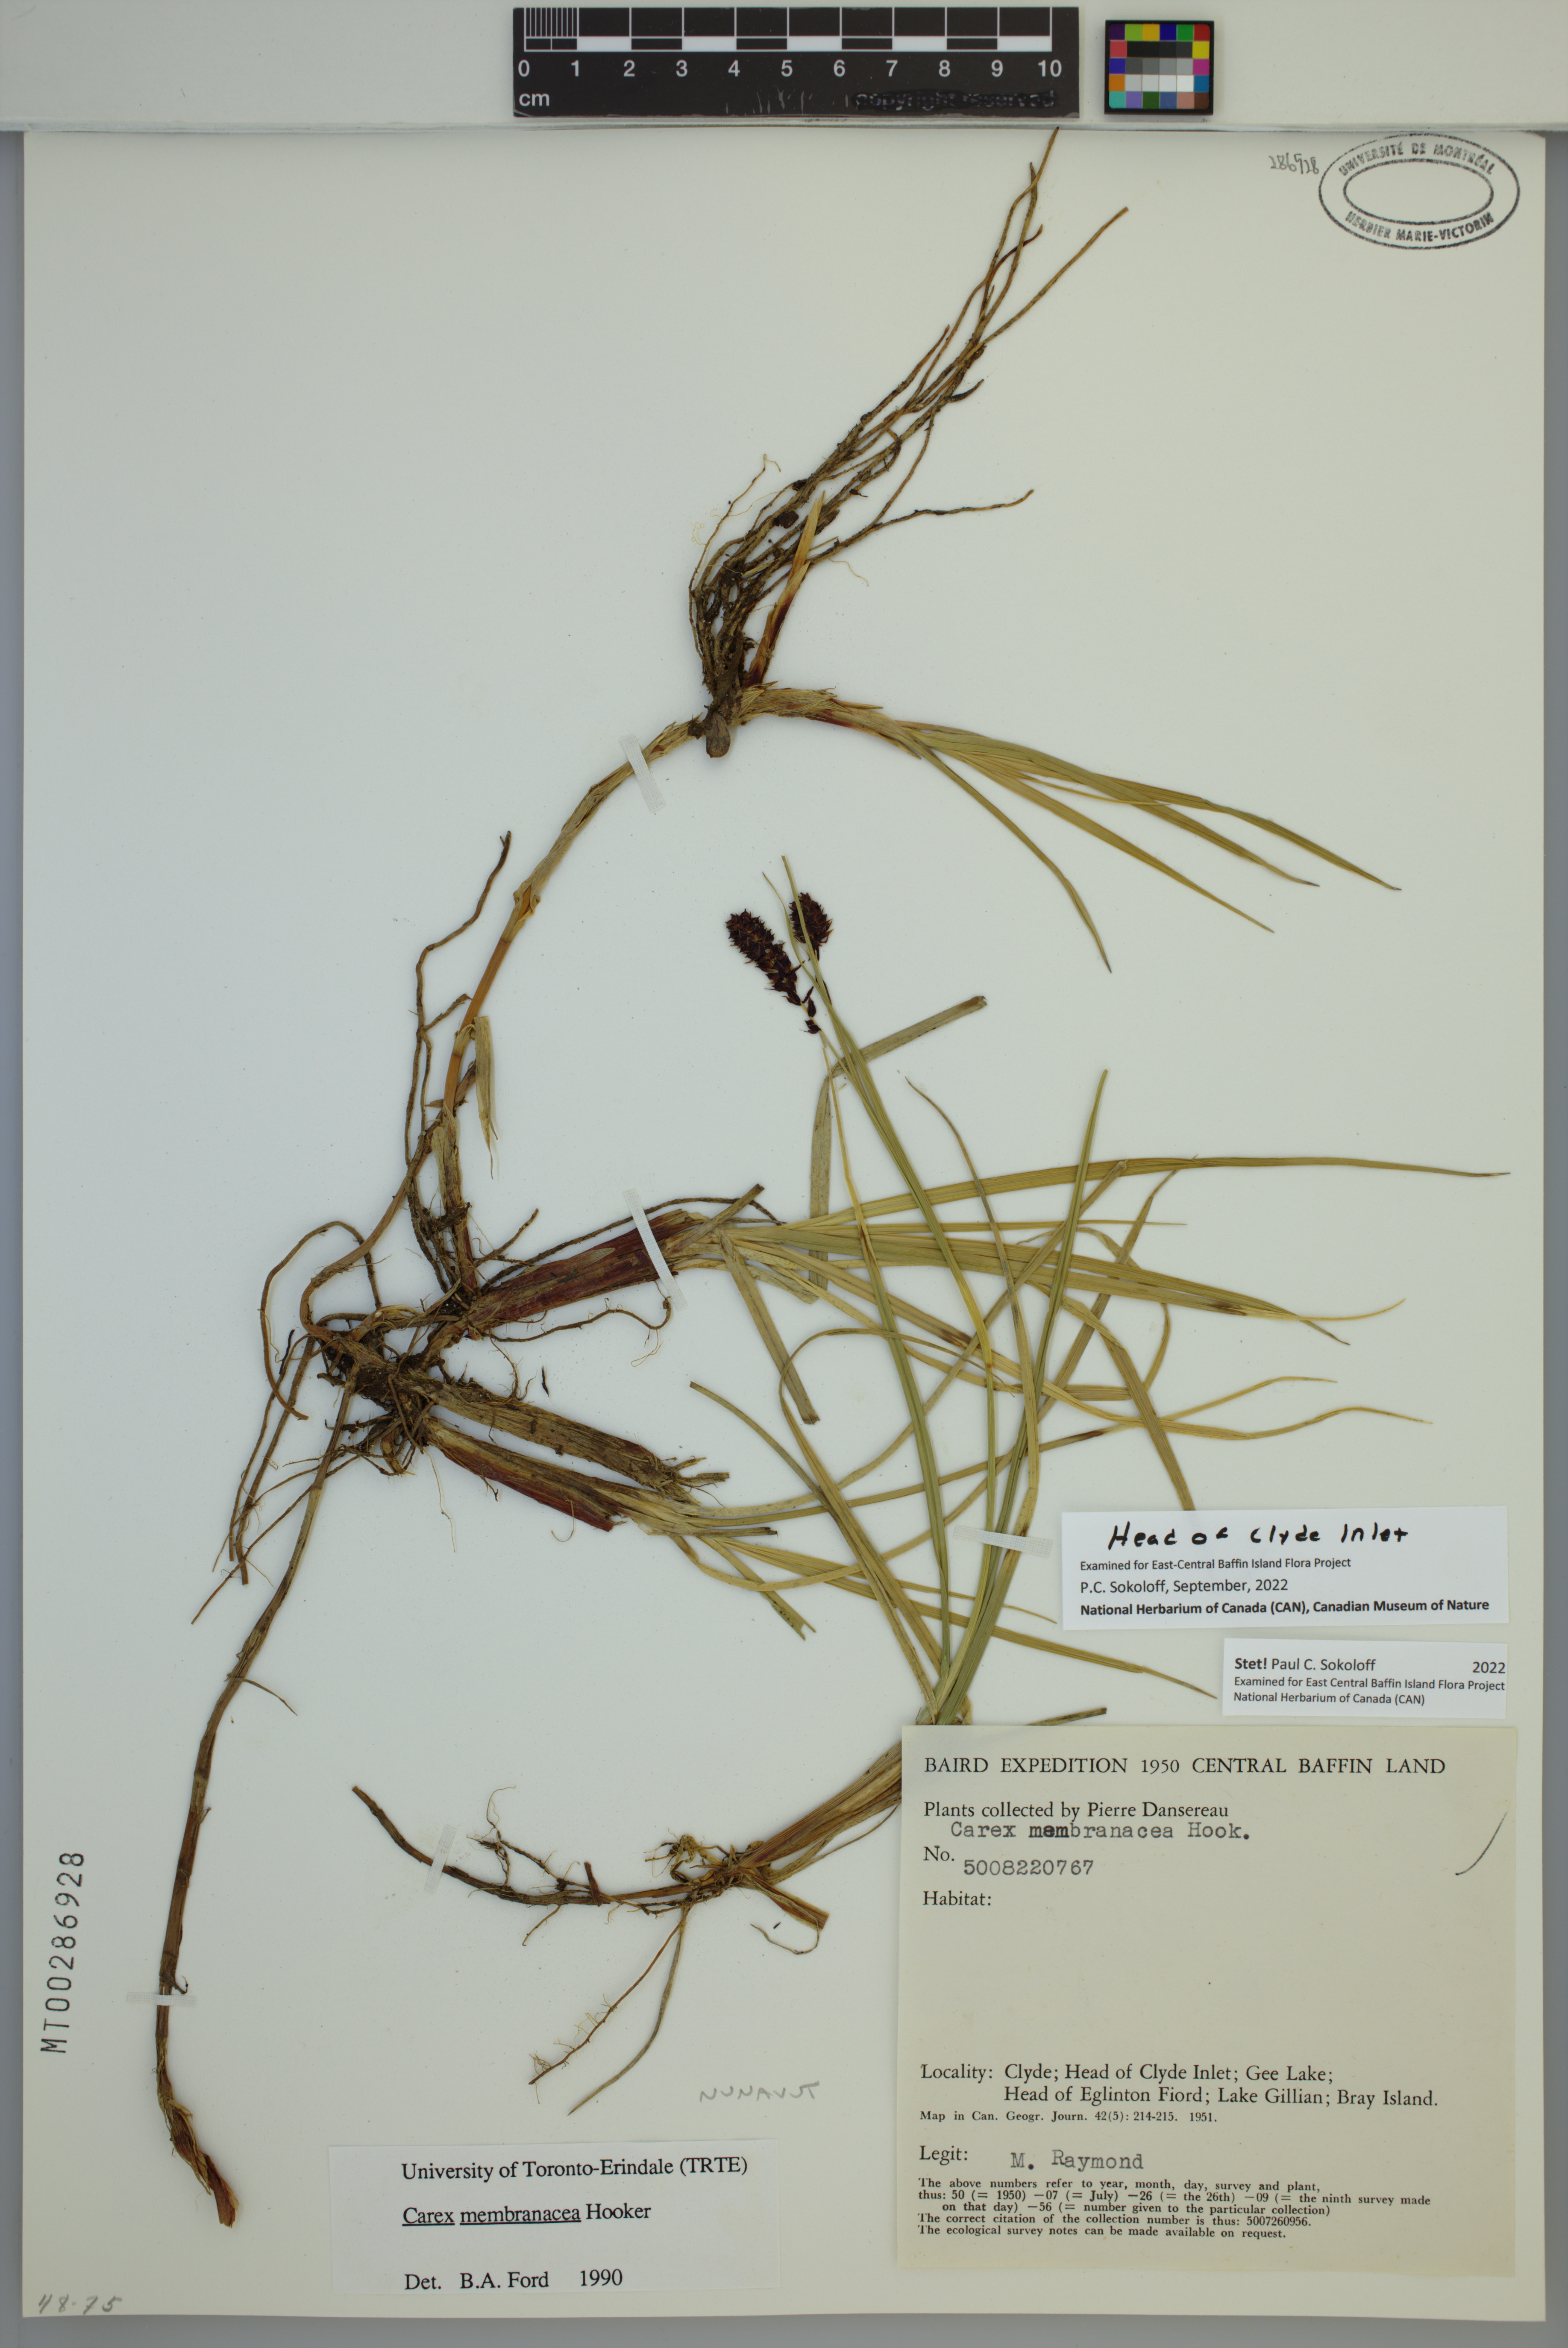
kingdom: Plantae
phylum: Tracheophyta
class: Liliopsida
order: Poales
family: Cyperaceae
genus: Carex
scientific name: Carex membranacea
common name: Fragile sedge
